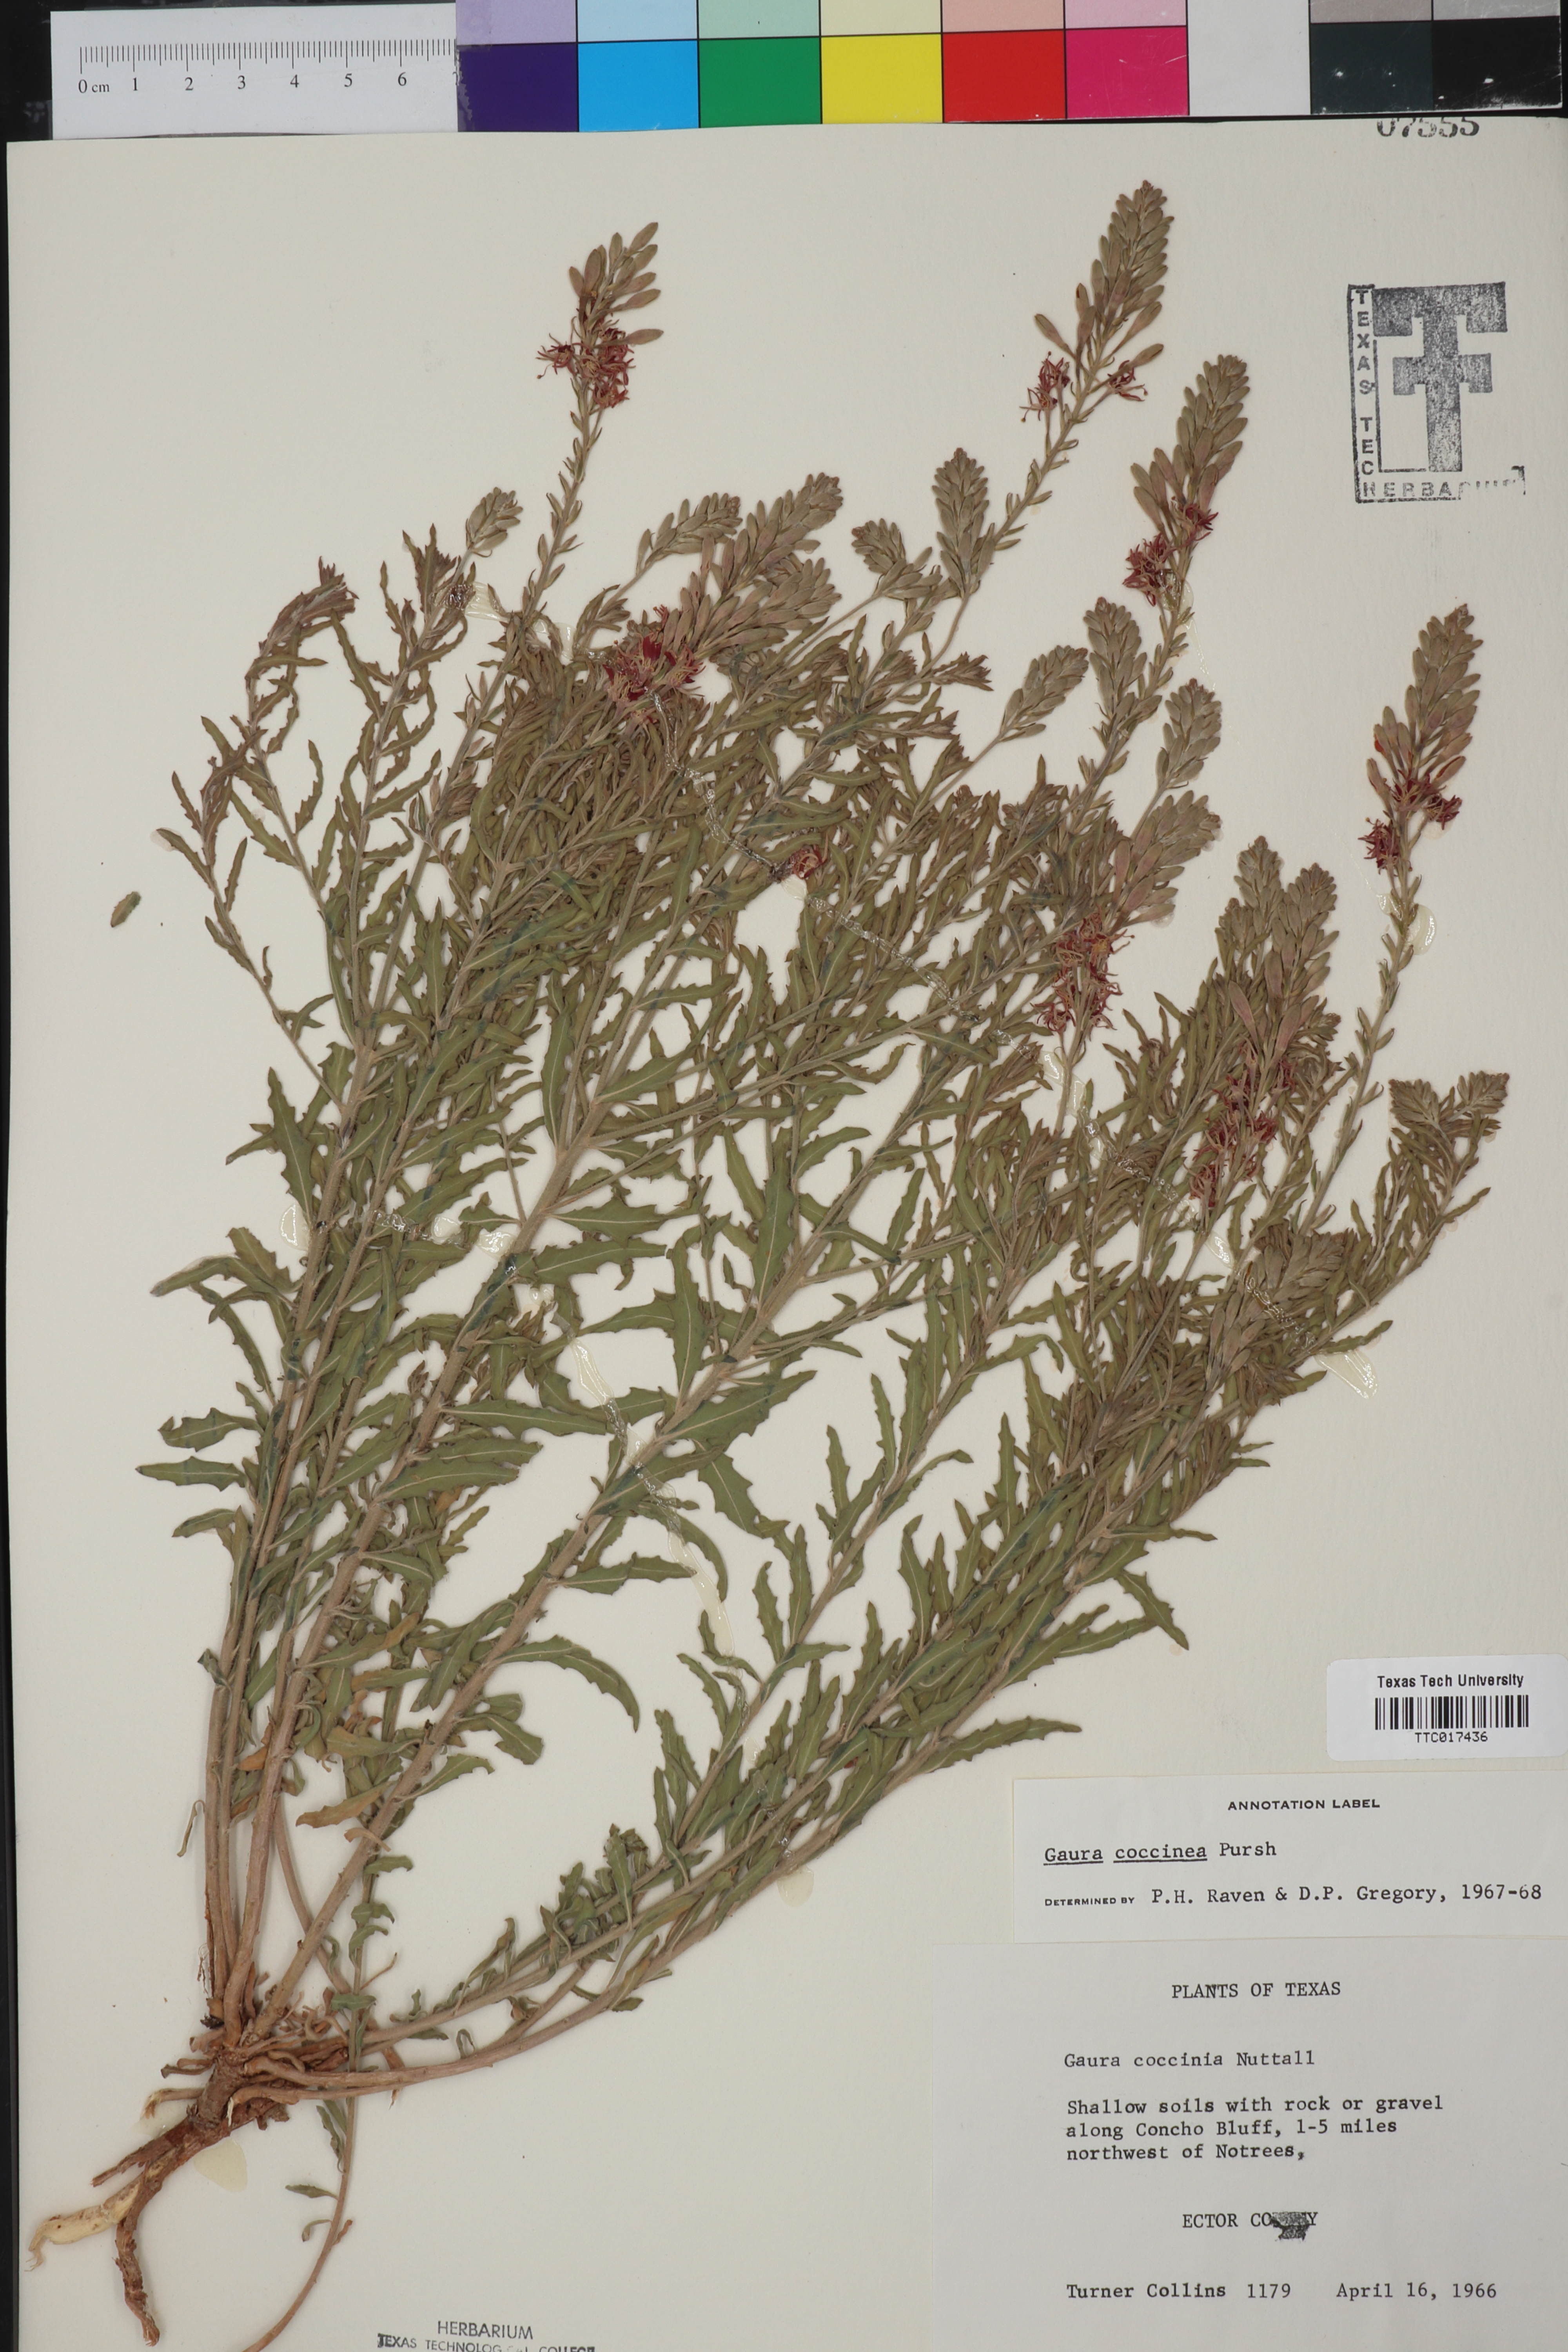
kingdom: Plantae
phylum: Tracheophyta
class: Magnoliopsida
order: Myrtales
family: Onagraceae
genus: Oenothera
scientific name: Oenothera suffrutescens
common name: Scarlet beeblossom
